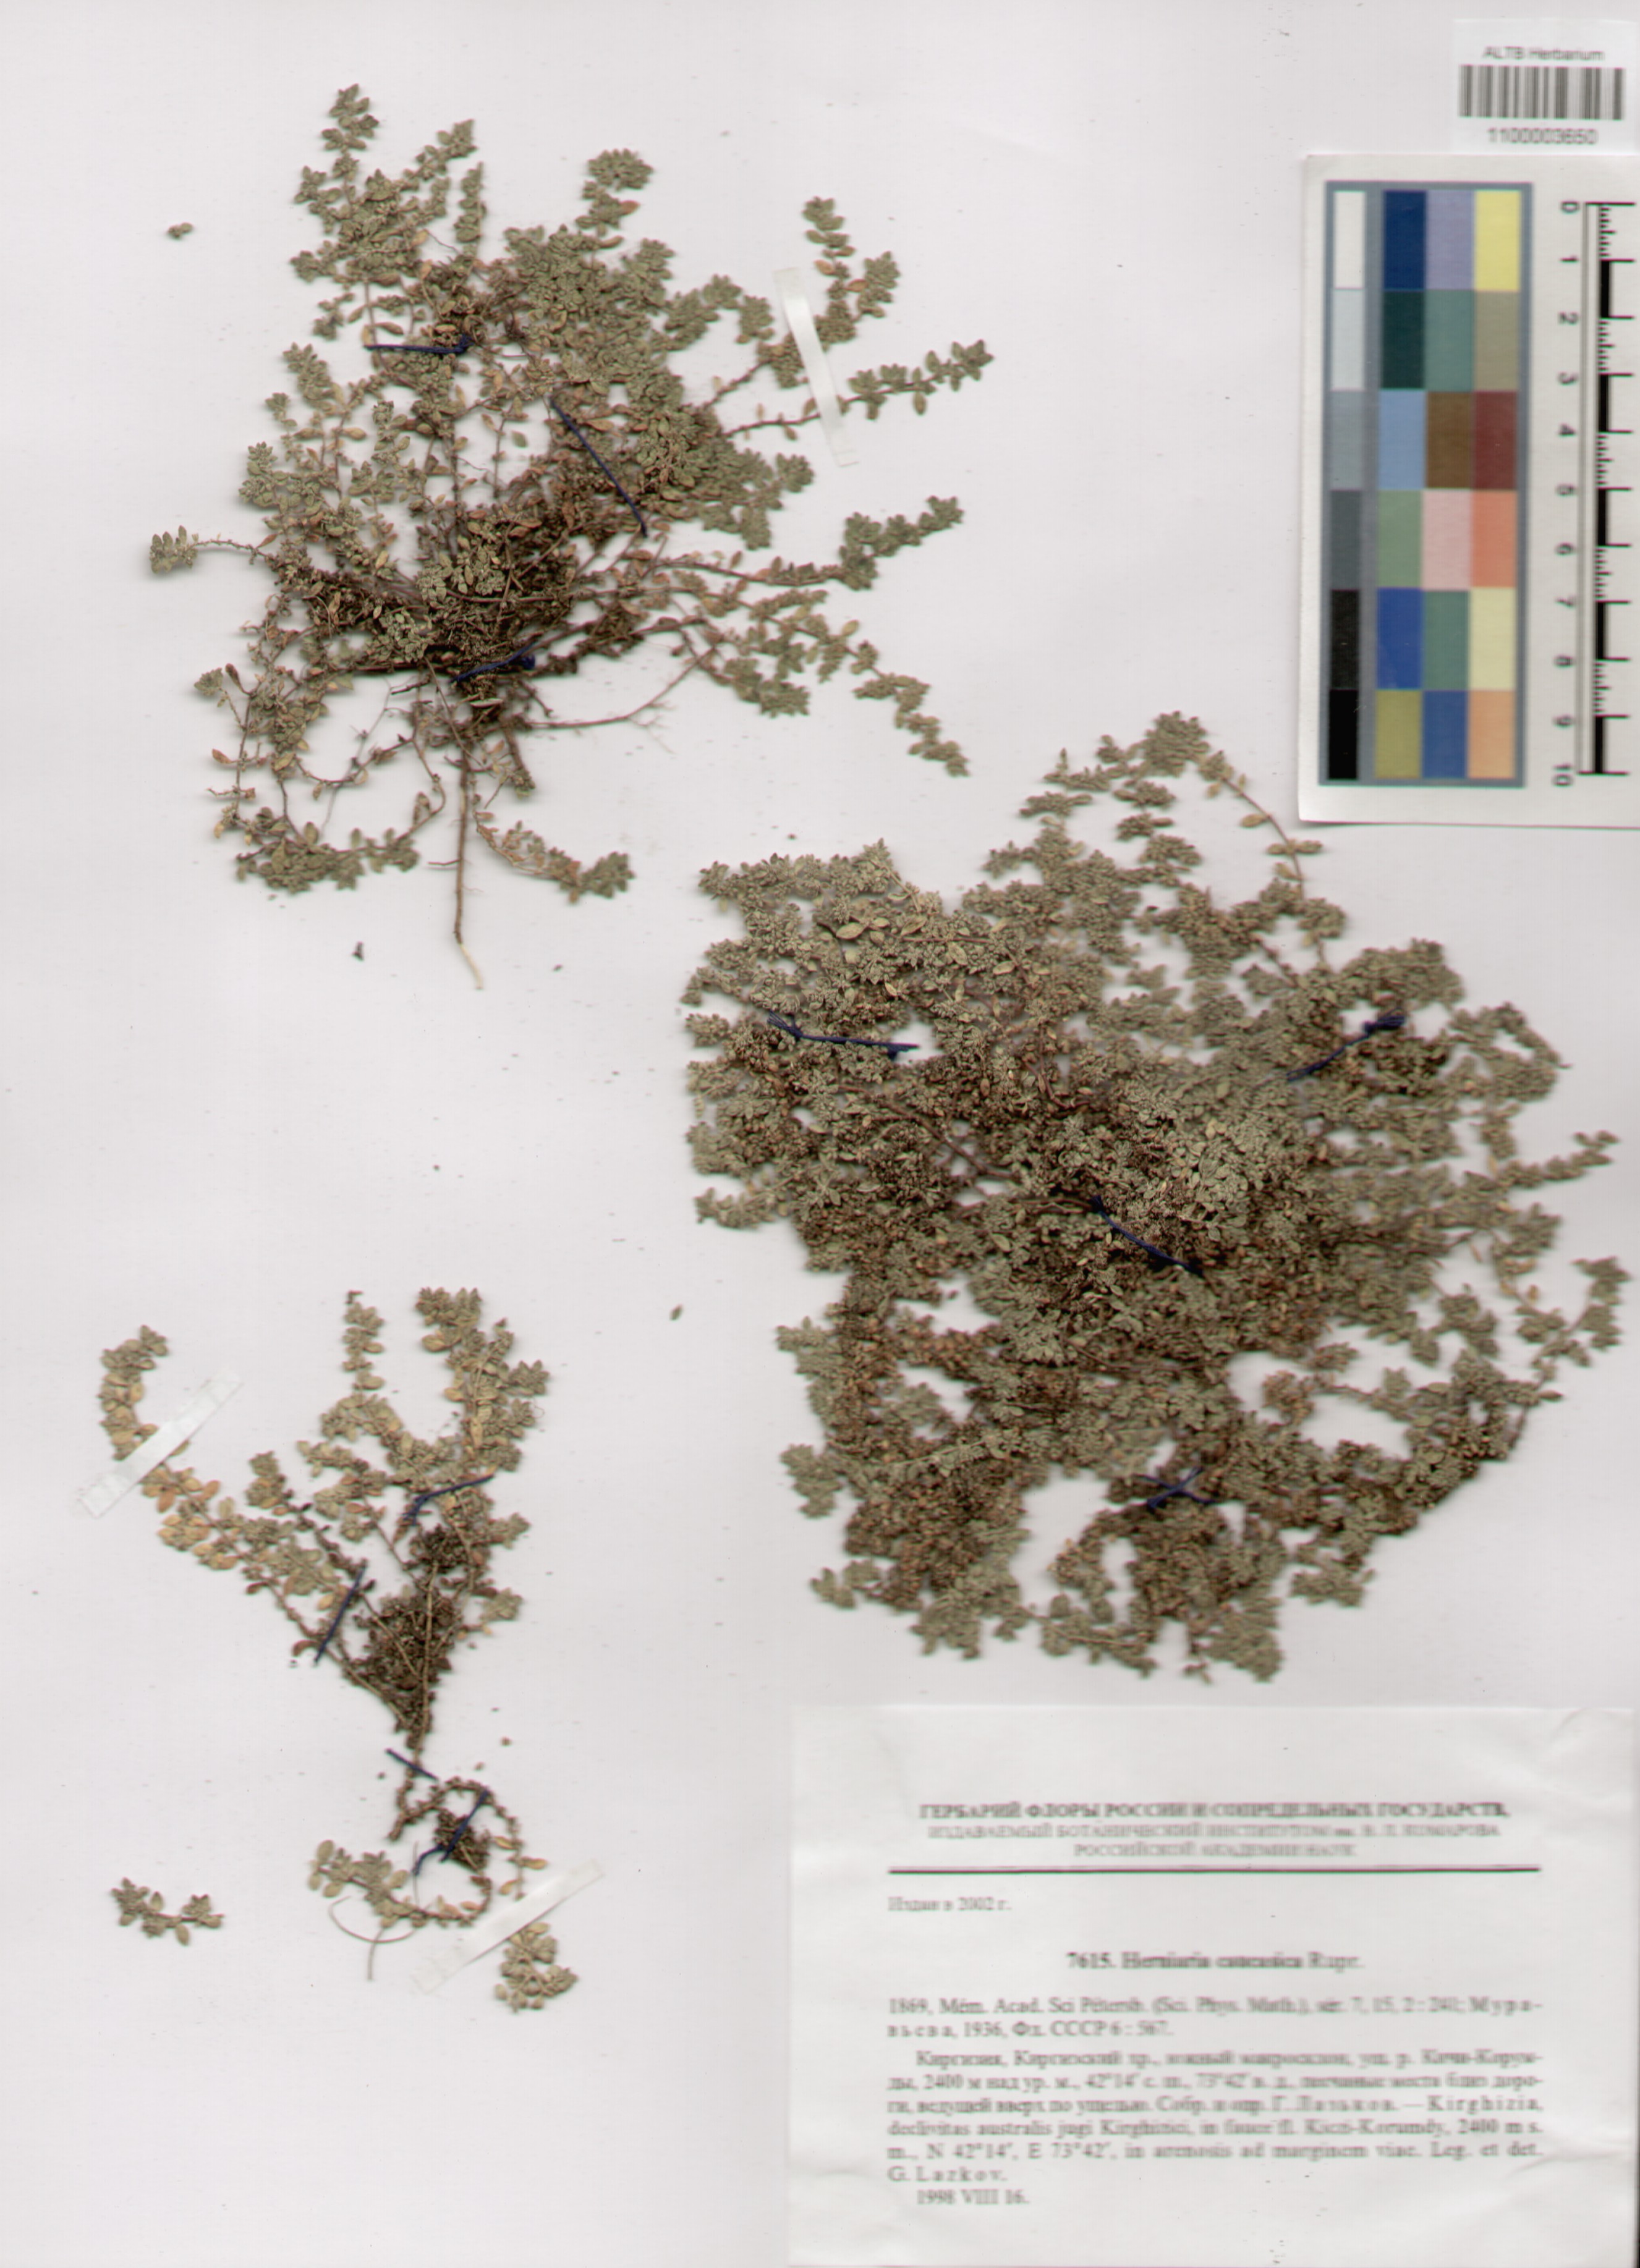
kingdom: Plantae
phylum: Tracheophyta
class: Magnoliopsida
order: Caryophyllales
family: Caryophyllaceae
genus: Herniaria
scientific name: Herniaria caucasica
